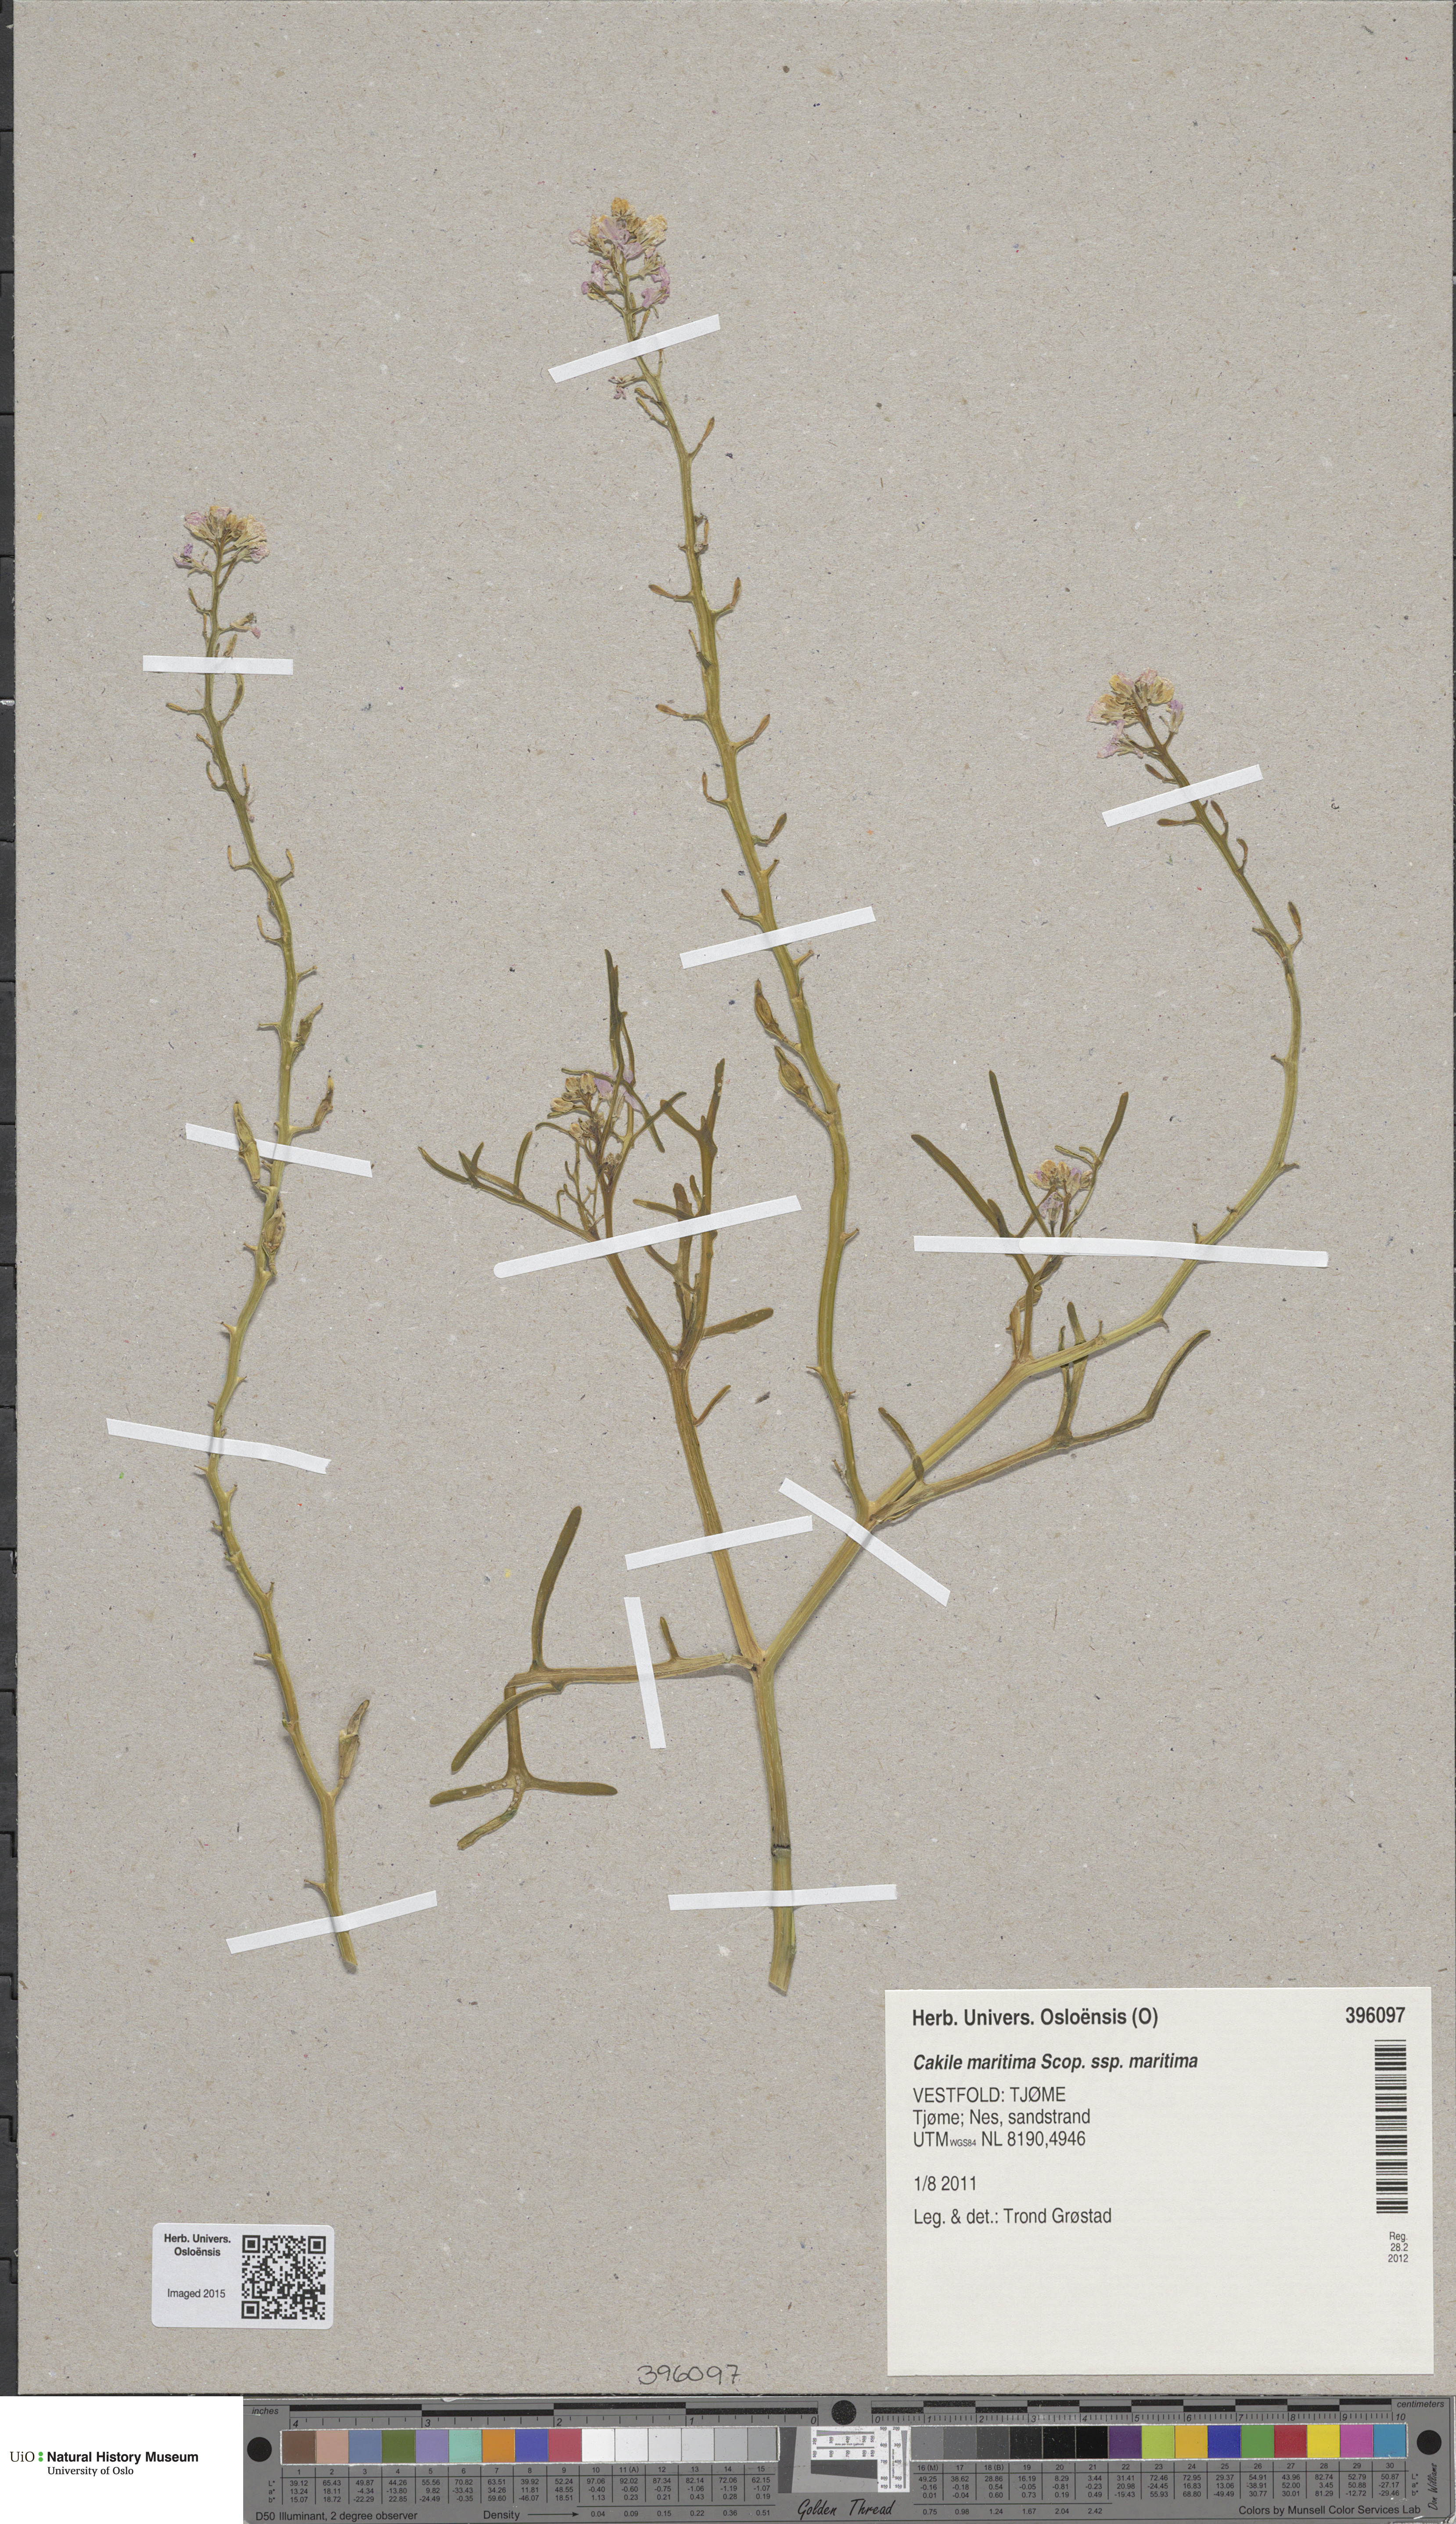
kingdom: Plantae
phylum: Tracheophyta
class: Magnoliopsida
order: Brassicales
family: Brassicaceae
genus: Cakile
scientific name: Cakile maritima
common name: Sea rocket
